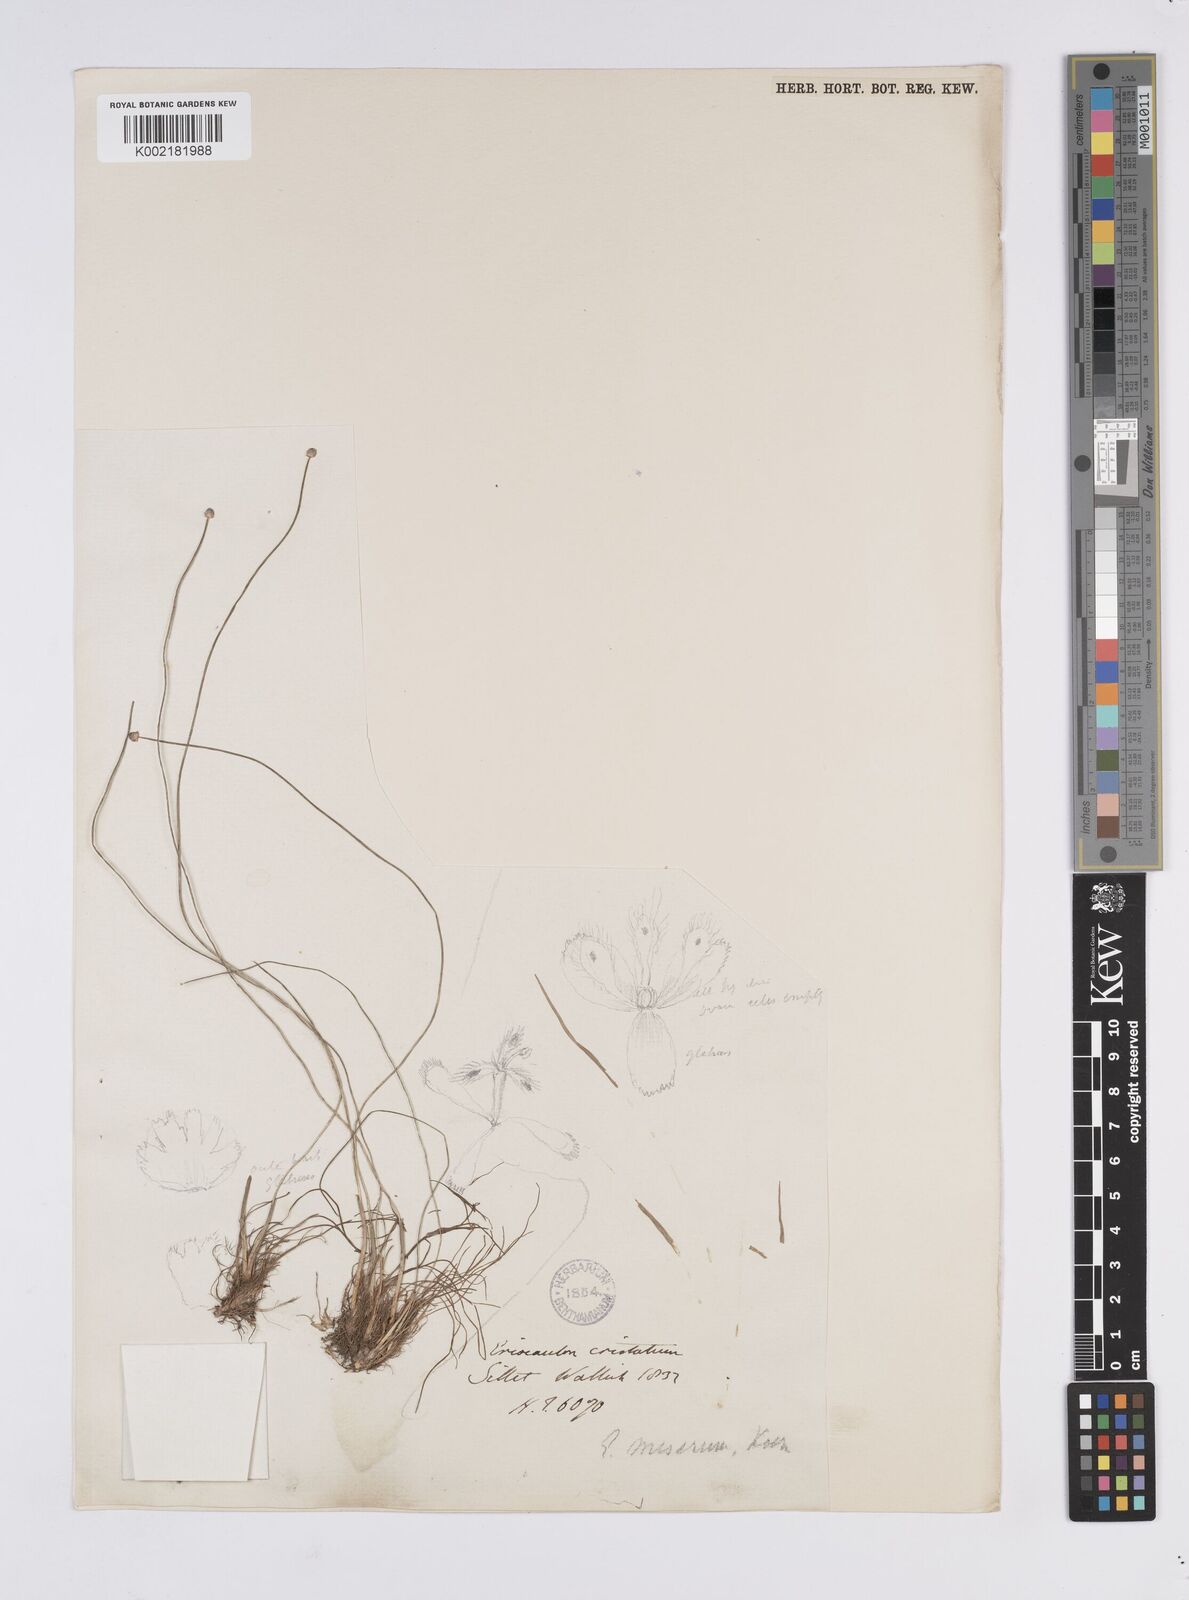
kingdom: Plantae
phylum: Tracheophyta
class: Liliopsida
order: Poales
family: Eriocaulaceae
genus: Eriocaulon
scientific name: Eriocaulon miserum
